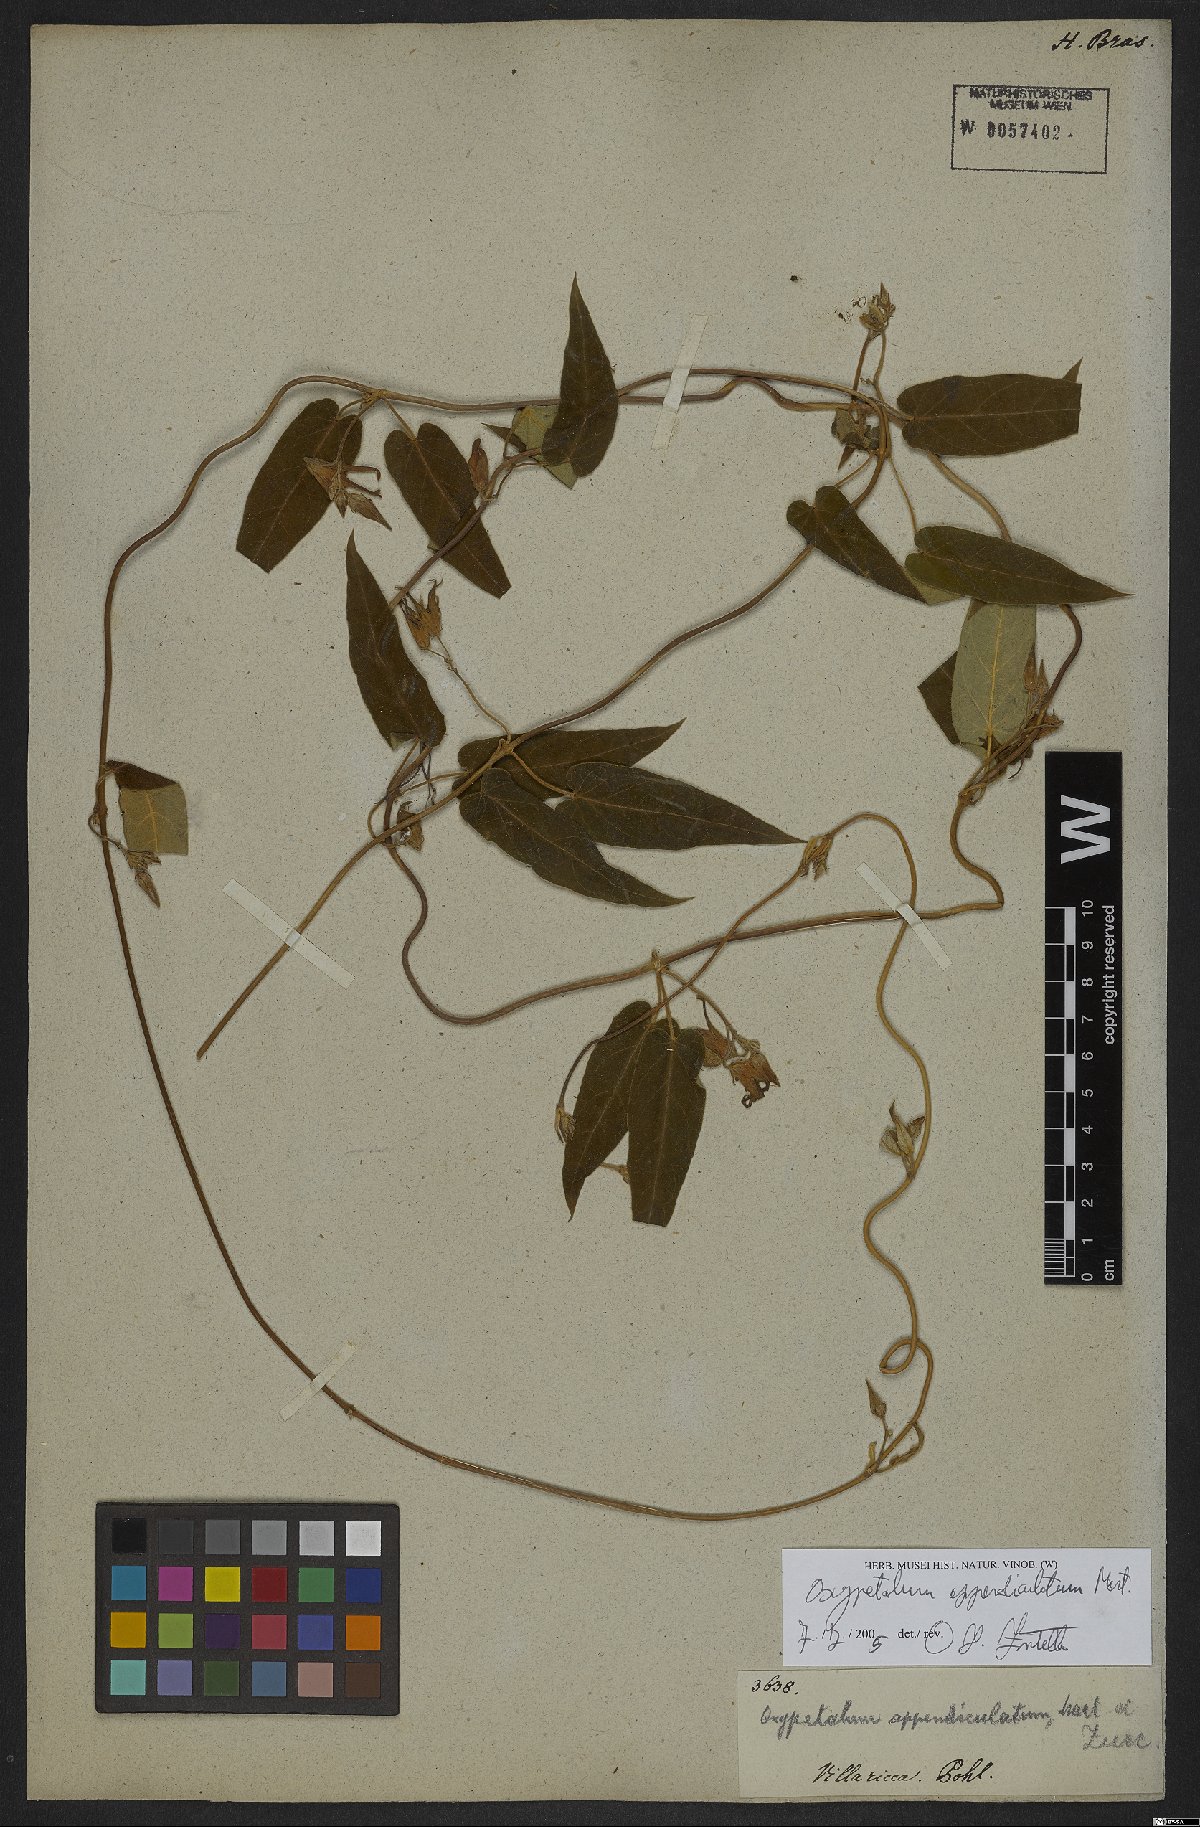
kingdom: Plantae
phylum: Tracheophyta
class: Magnoliopsida
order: Gentianales
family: Apocynaceae
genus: Oxypetalum
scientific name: Oxypetalum appendiculatum
